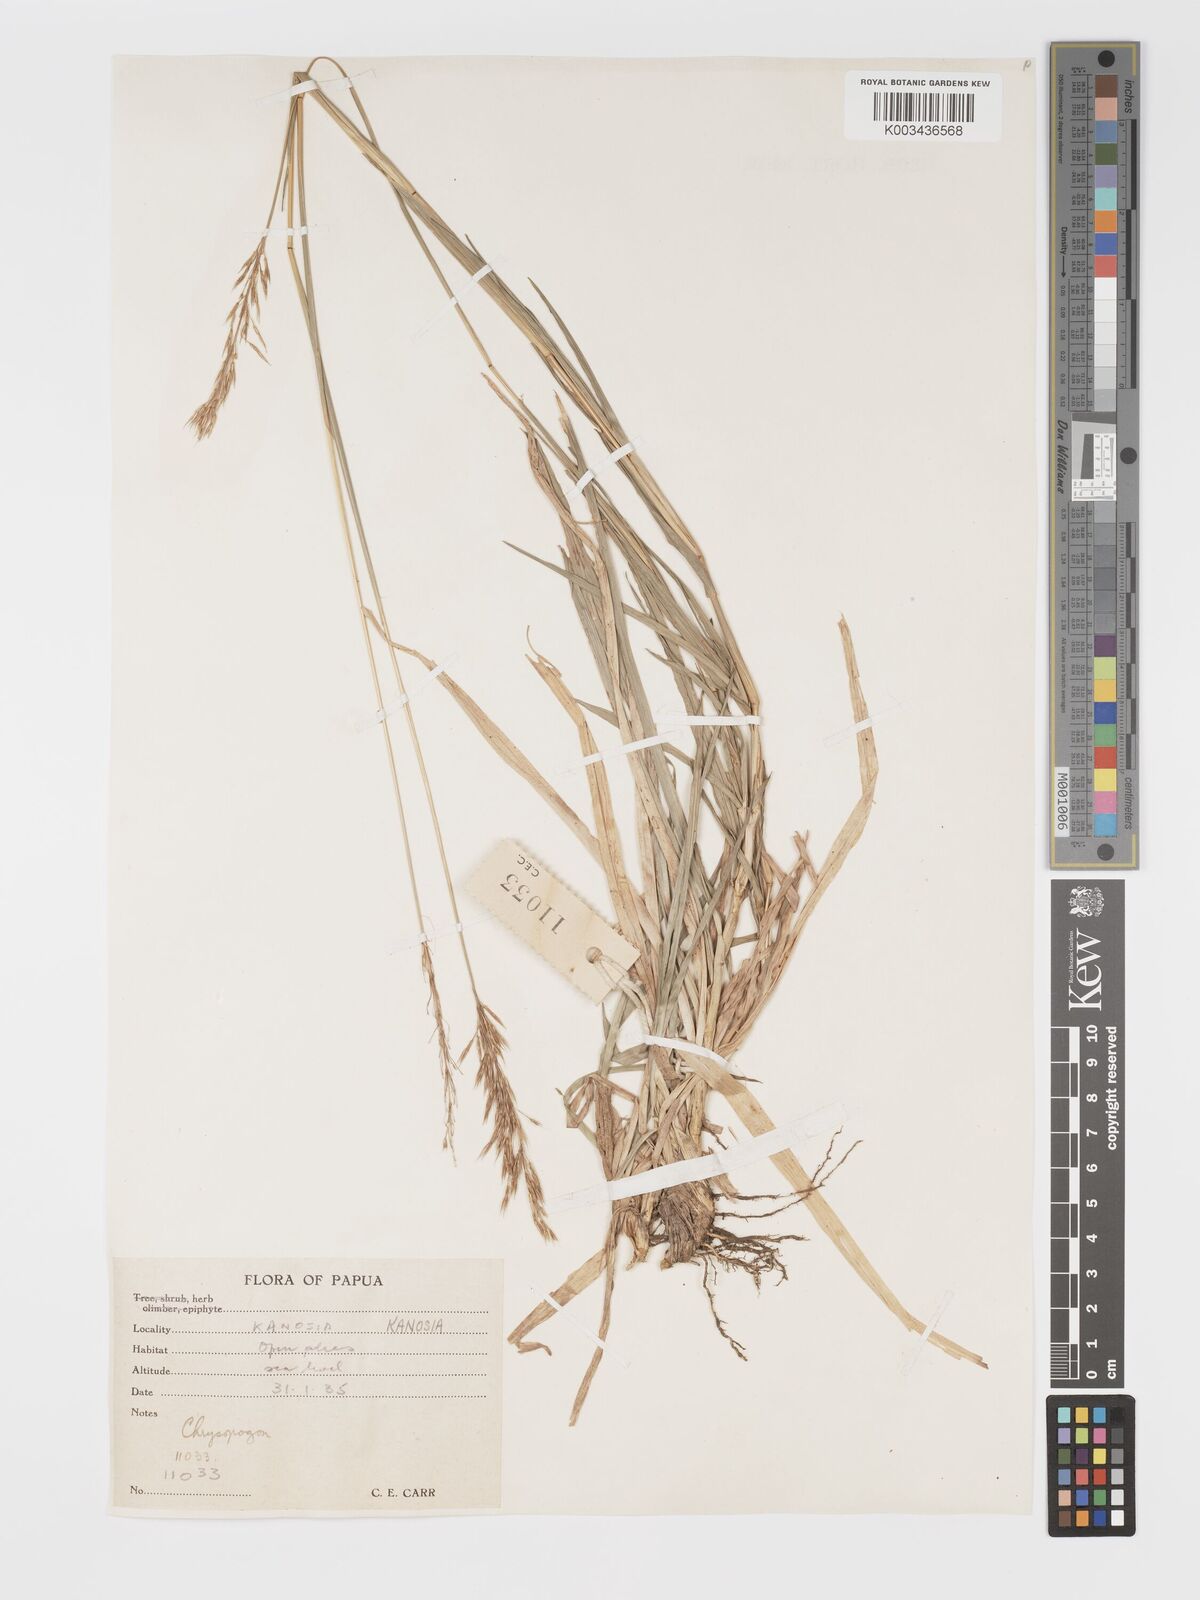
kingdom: Plantae
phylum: Tracheophyta
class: Liliopsida
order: Poales
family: Poaceae
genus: Chrysopogon
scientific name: Chrysopogon aciculatus
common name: Pilipiliula
